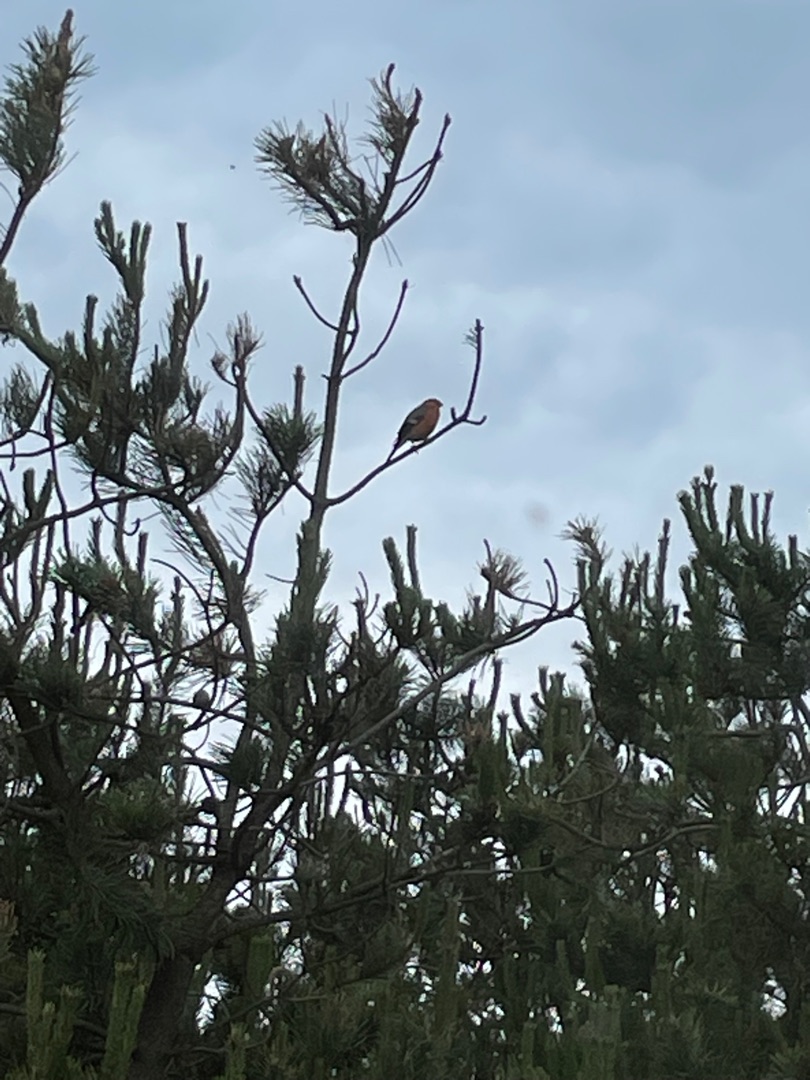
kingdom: Animalia
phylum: Chordata
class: Aves
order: Passeriformes
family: Fringillidae
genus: Pyrrhula
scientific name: Pyrrhula pyrrhula
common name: Dompap
